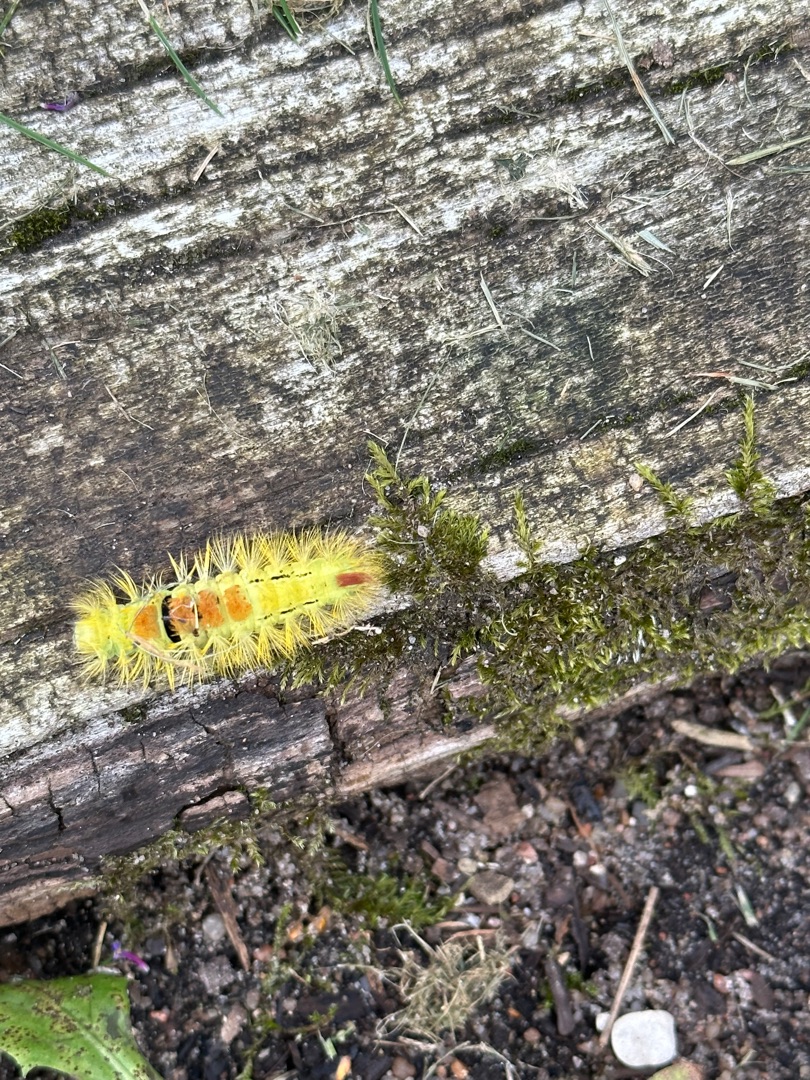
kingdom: Animalia
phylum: Arthropoda
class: Insecta
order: Lepidoptera
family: Erebidae
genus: Calliteara
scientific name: Calliteara pudibunda
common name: Bøgenonne
